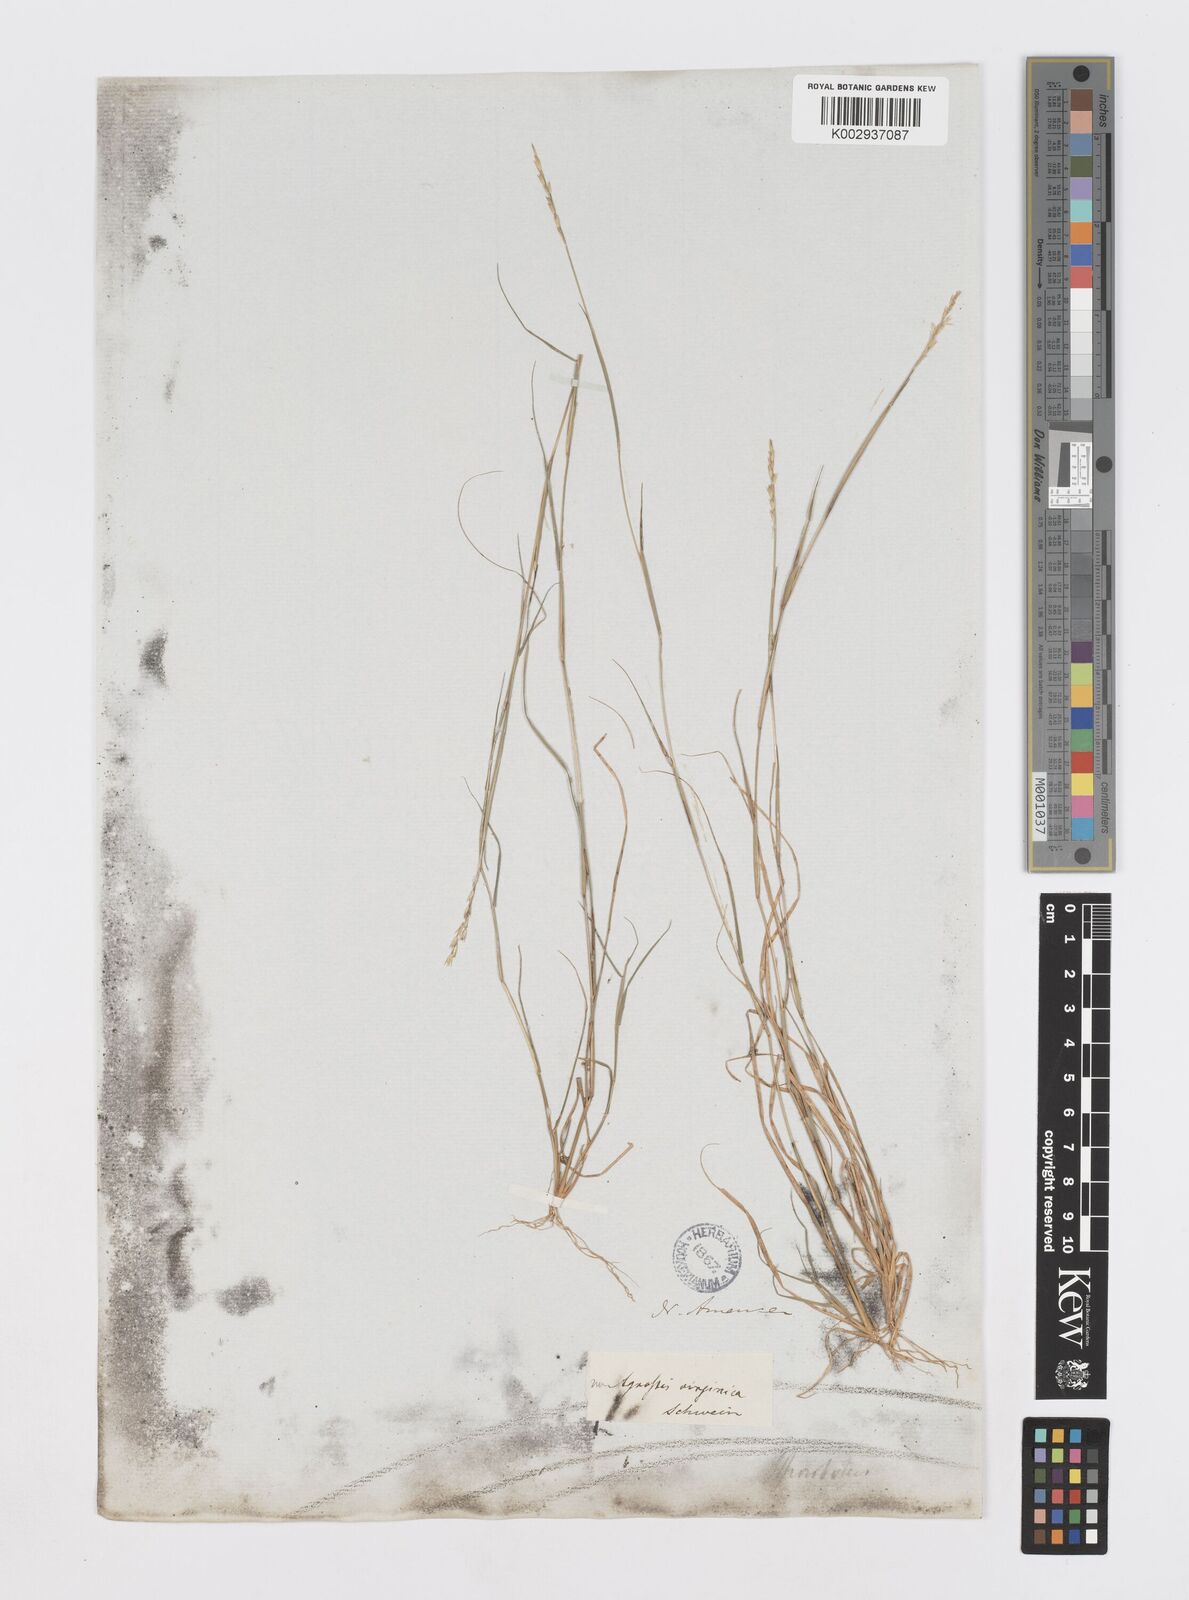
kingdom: Plantae
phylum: Tracheophyta
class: Liliopsida
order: Poales
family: Poaceae
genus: Sporobolus
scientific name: Sporobolus vaginiflorus
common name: Poverty dropseed
